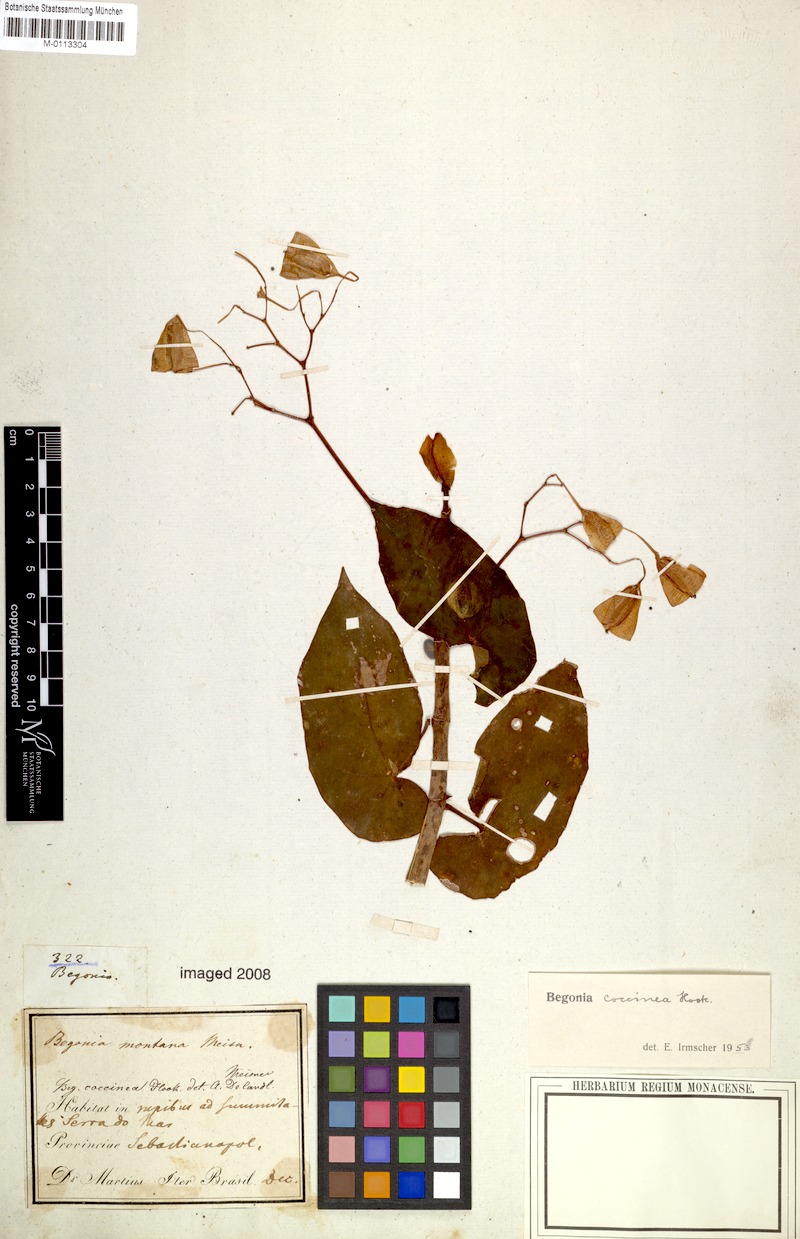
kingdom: Plantae
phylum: Tracheophyta
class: Magnoliopsida
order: Cucurbitales
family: Begoniaceae
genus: Begonia
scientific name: Begonia coccinea
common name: Angel-wing begonia
